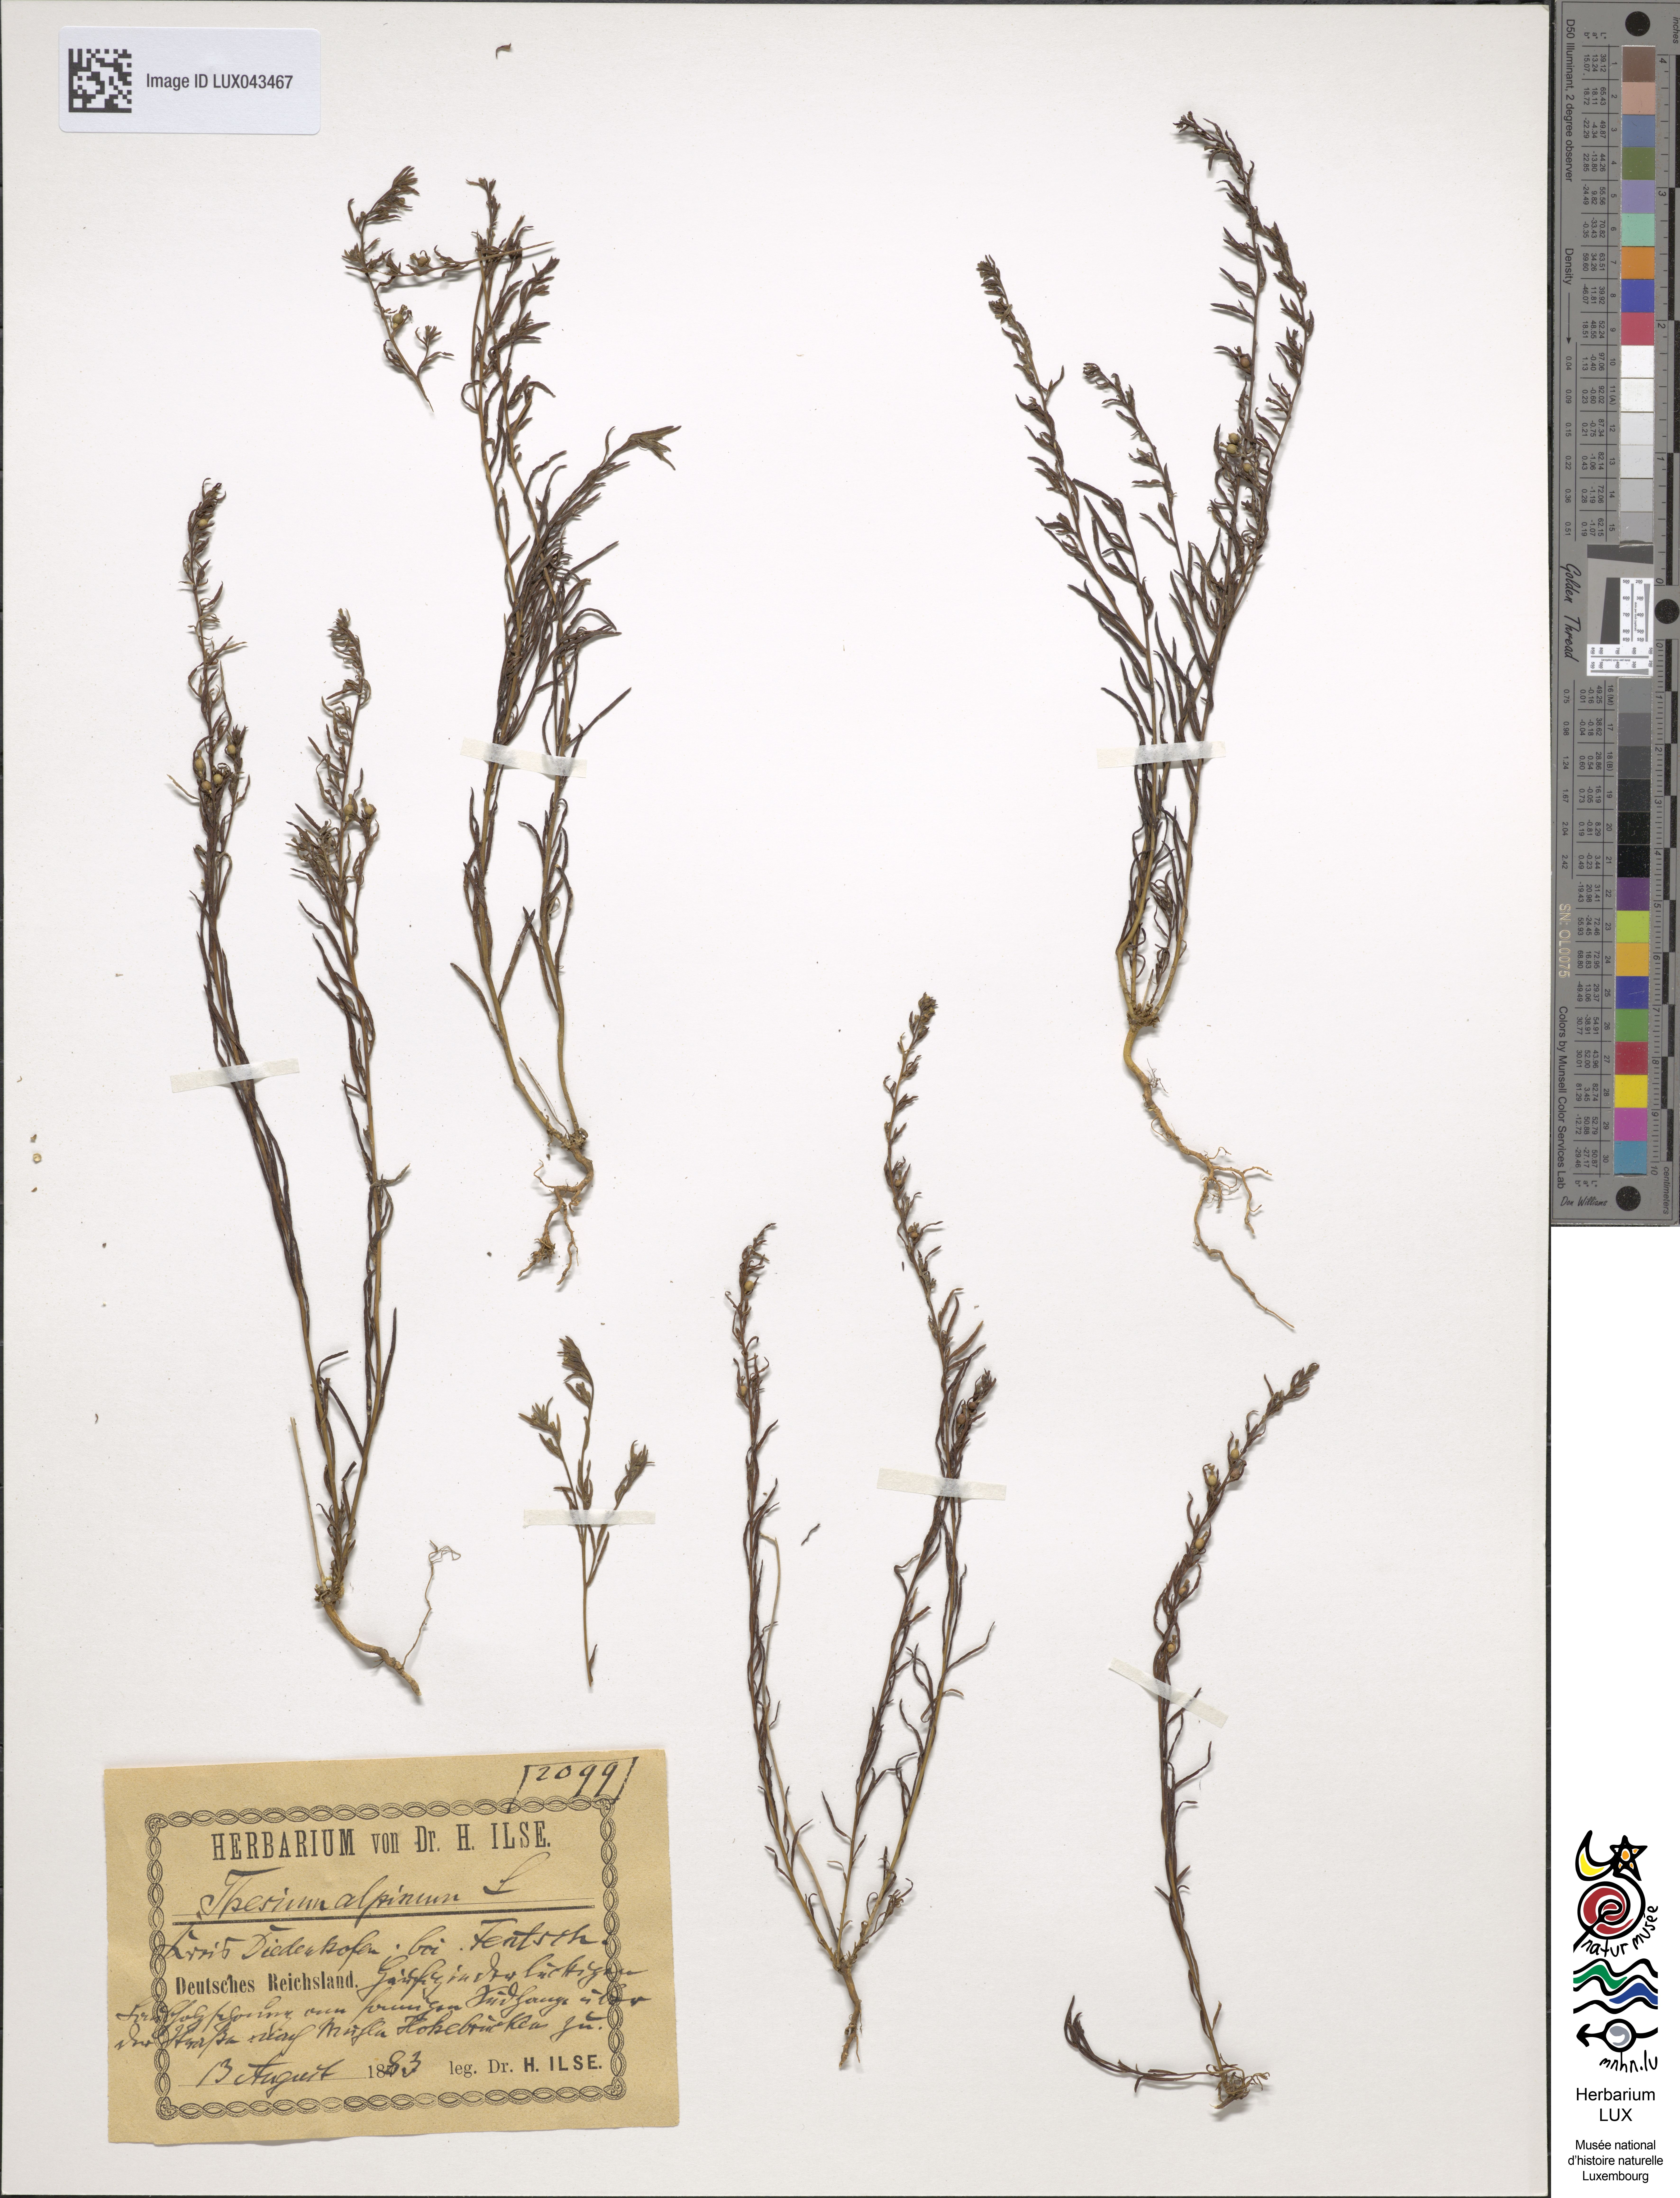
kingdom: Plantae
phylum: Tracheophyta
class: Magnoliopsida
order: Santalales
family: Thesiaceae
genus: Thesium
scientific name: Thesium alpinum
